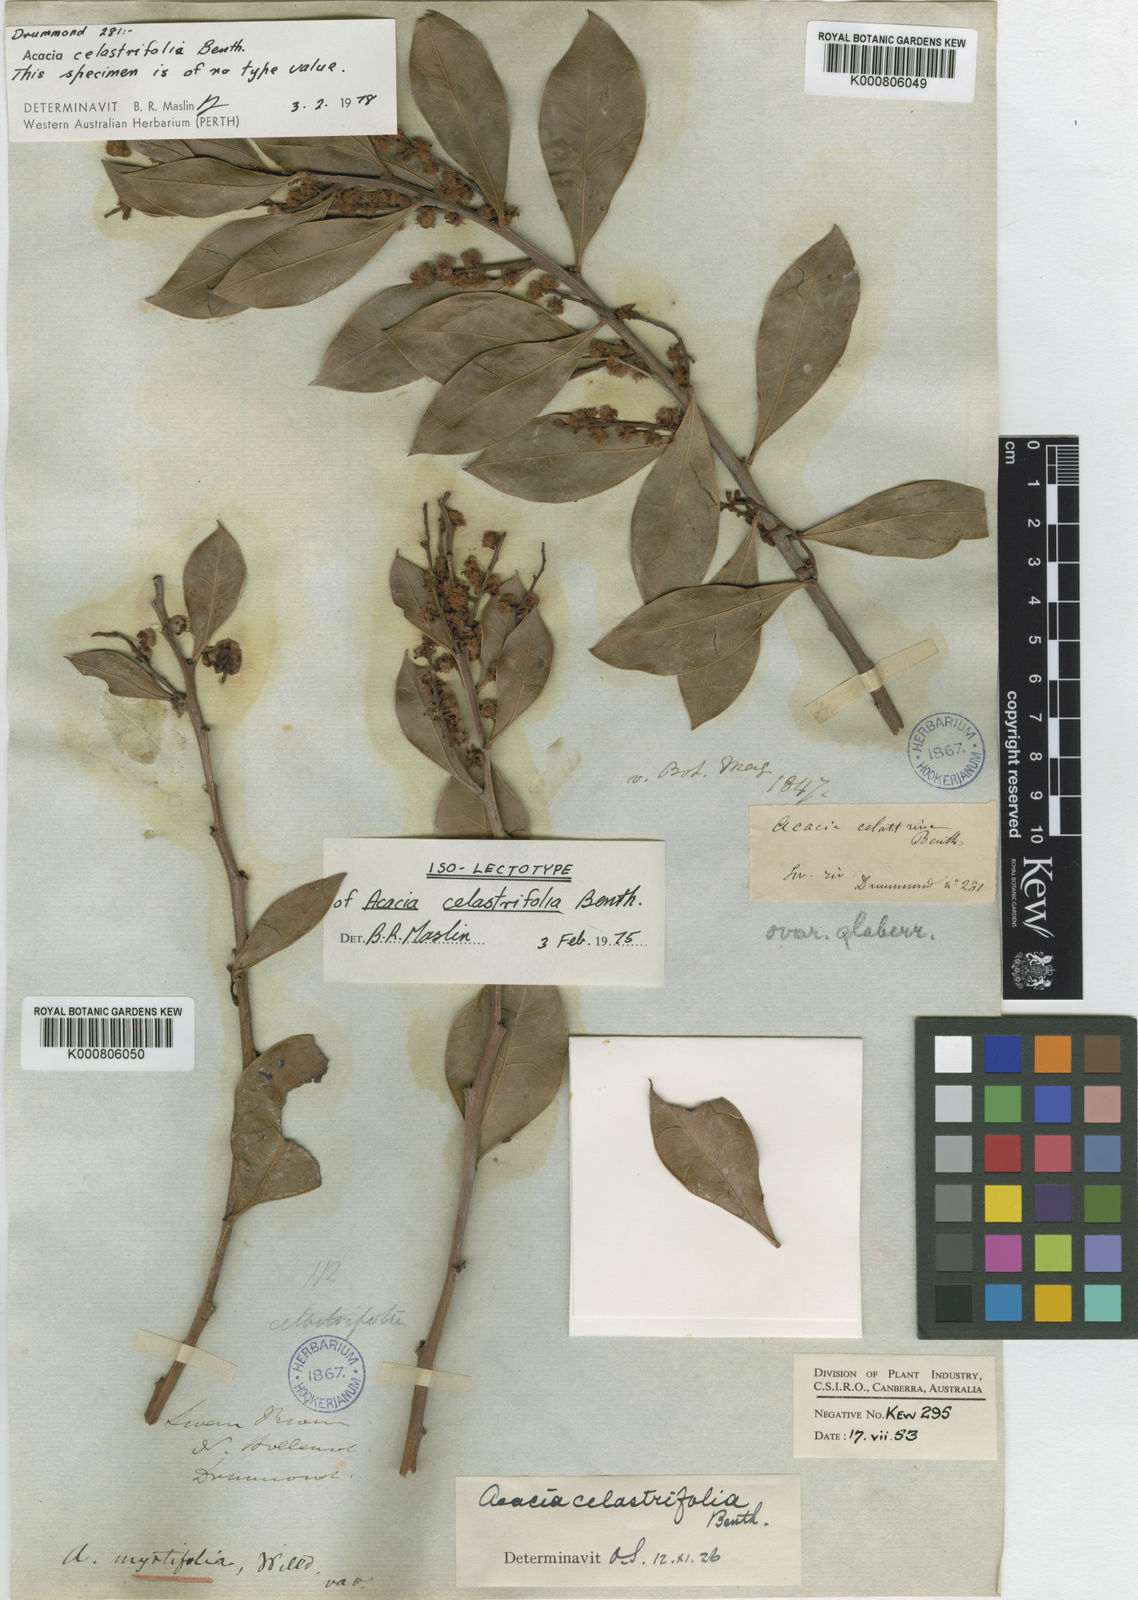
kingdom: Plantae
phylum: Tracheophyta
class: Magnoliopsida
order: Fabales
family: Fabaceae
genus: Acacia
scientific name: Acacia celastrifolia
